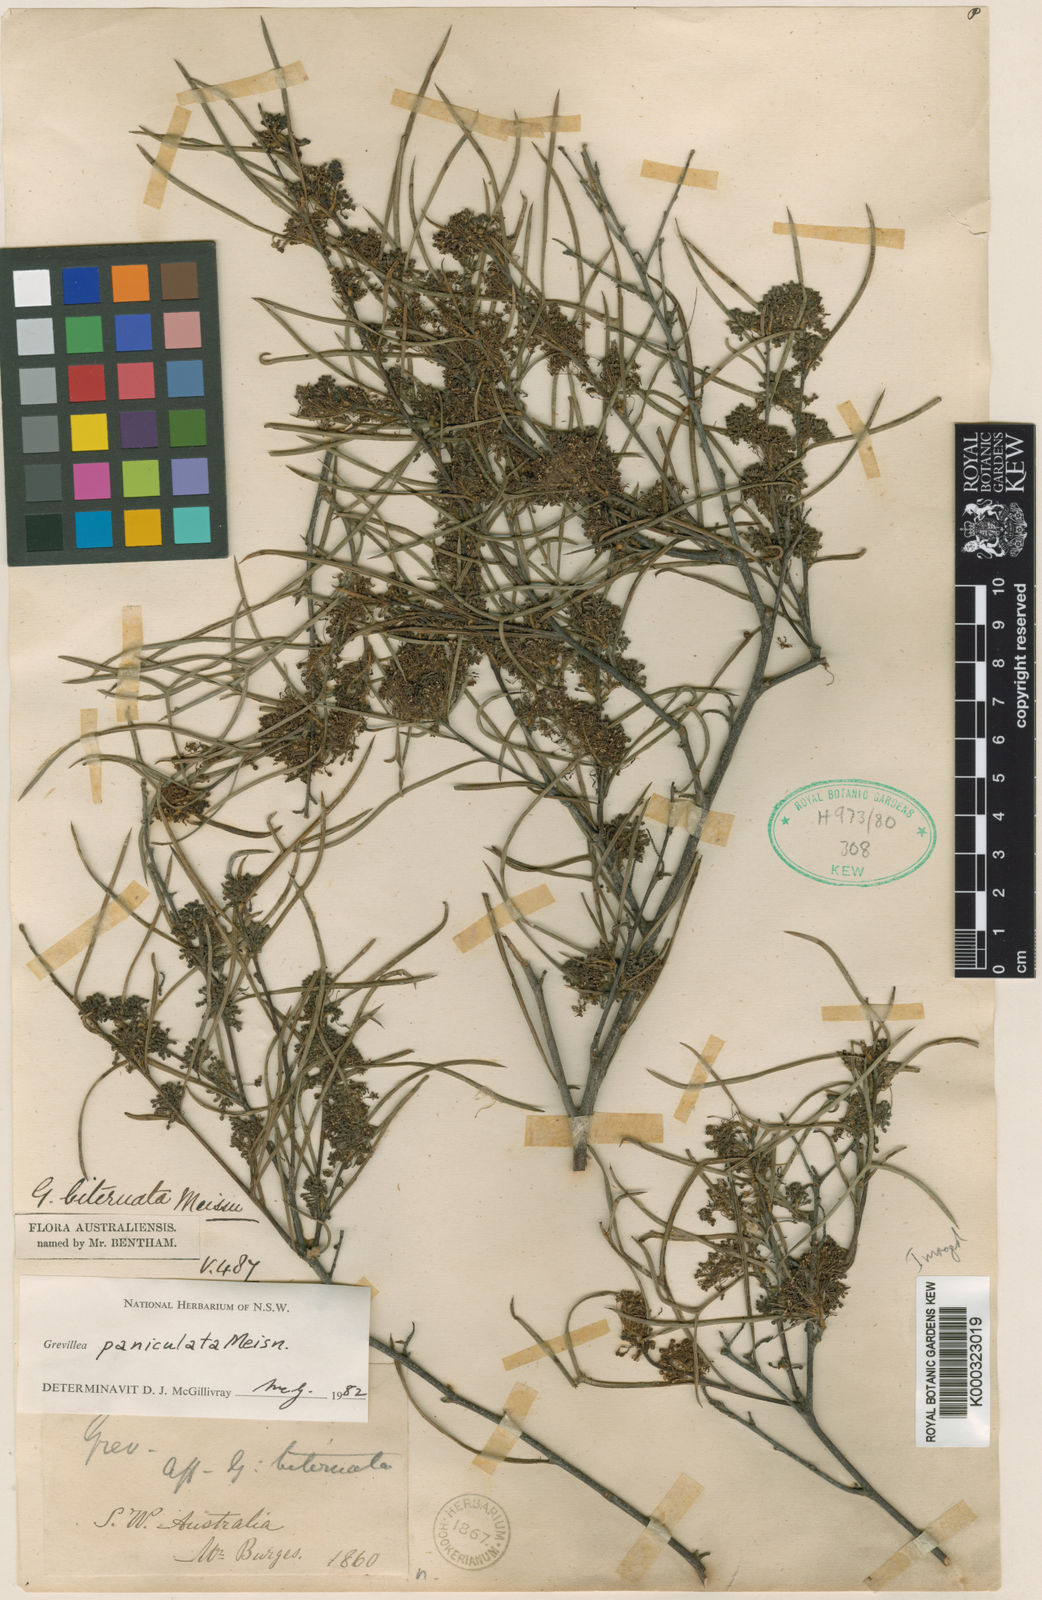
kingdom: Plantae
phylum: Tracheophyta
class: Magnoliopsida
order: Proteales
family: Proteaceae
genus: Grevillea
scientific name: Grevillea biternata
